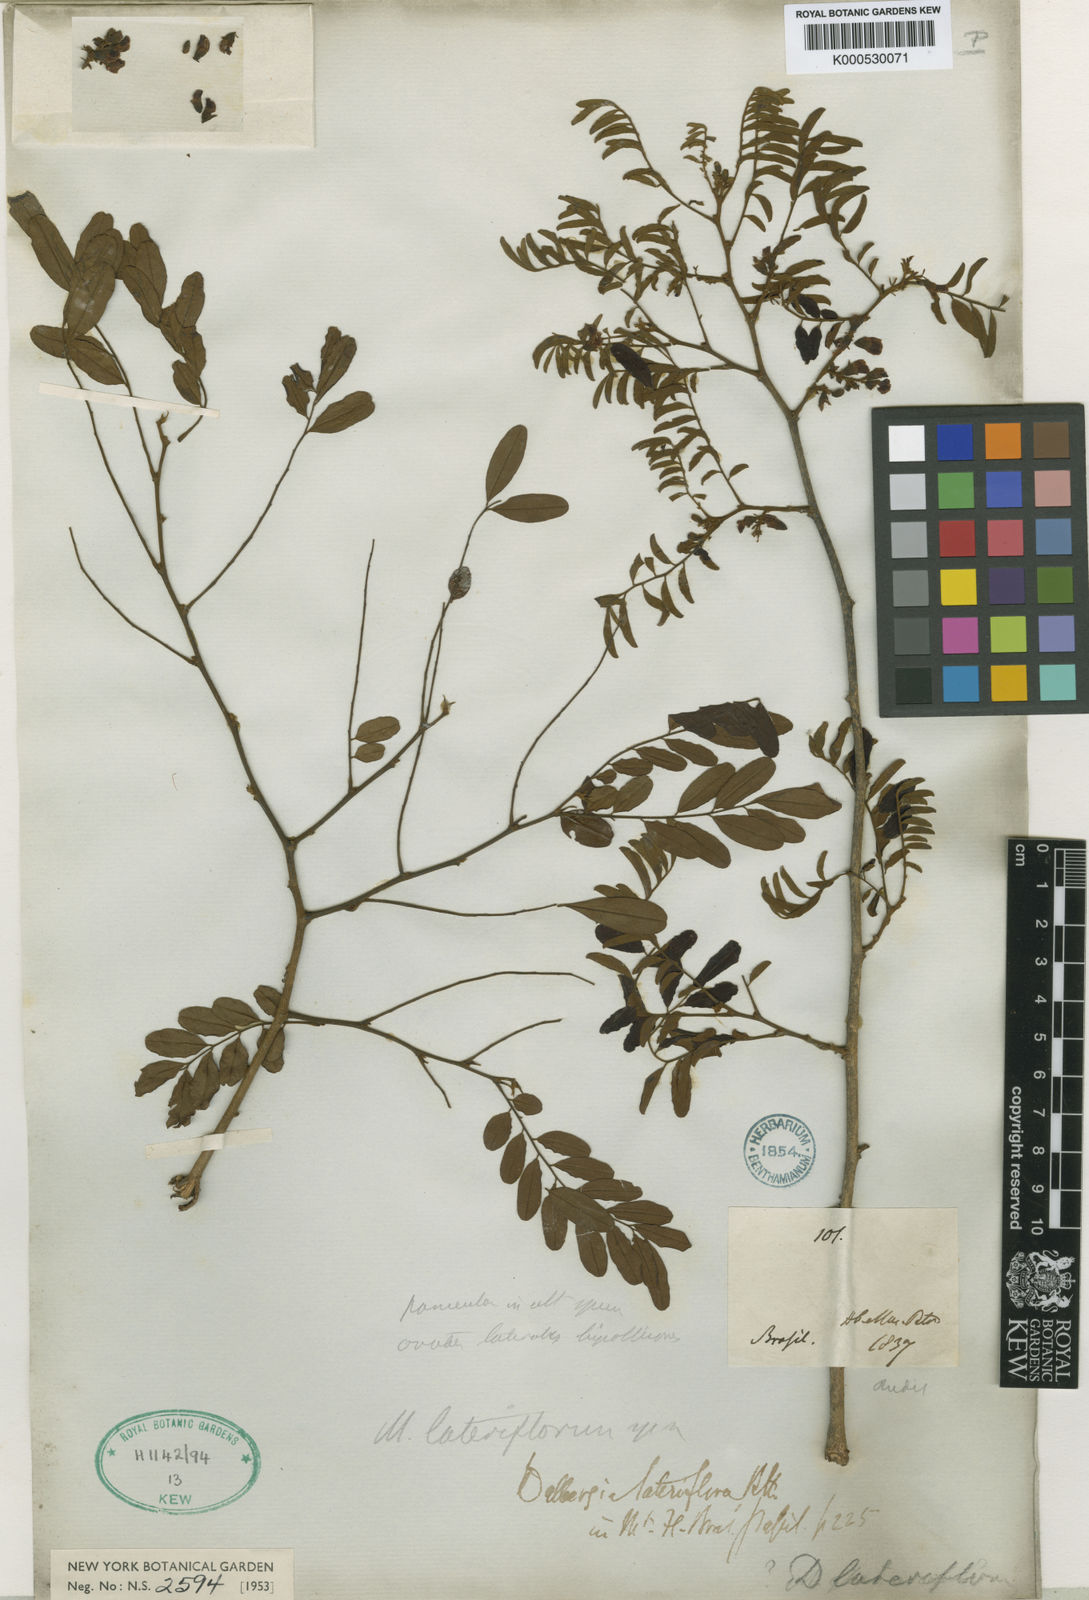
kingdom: Plantae
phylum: Tracheophyta
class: Magnoliopsida
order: Fabales
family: Fabaceae
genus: Dalbergia
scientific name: Dalbergia lateriflora
